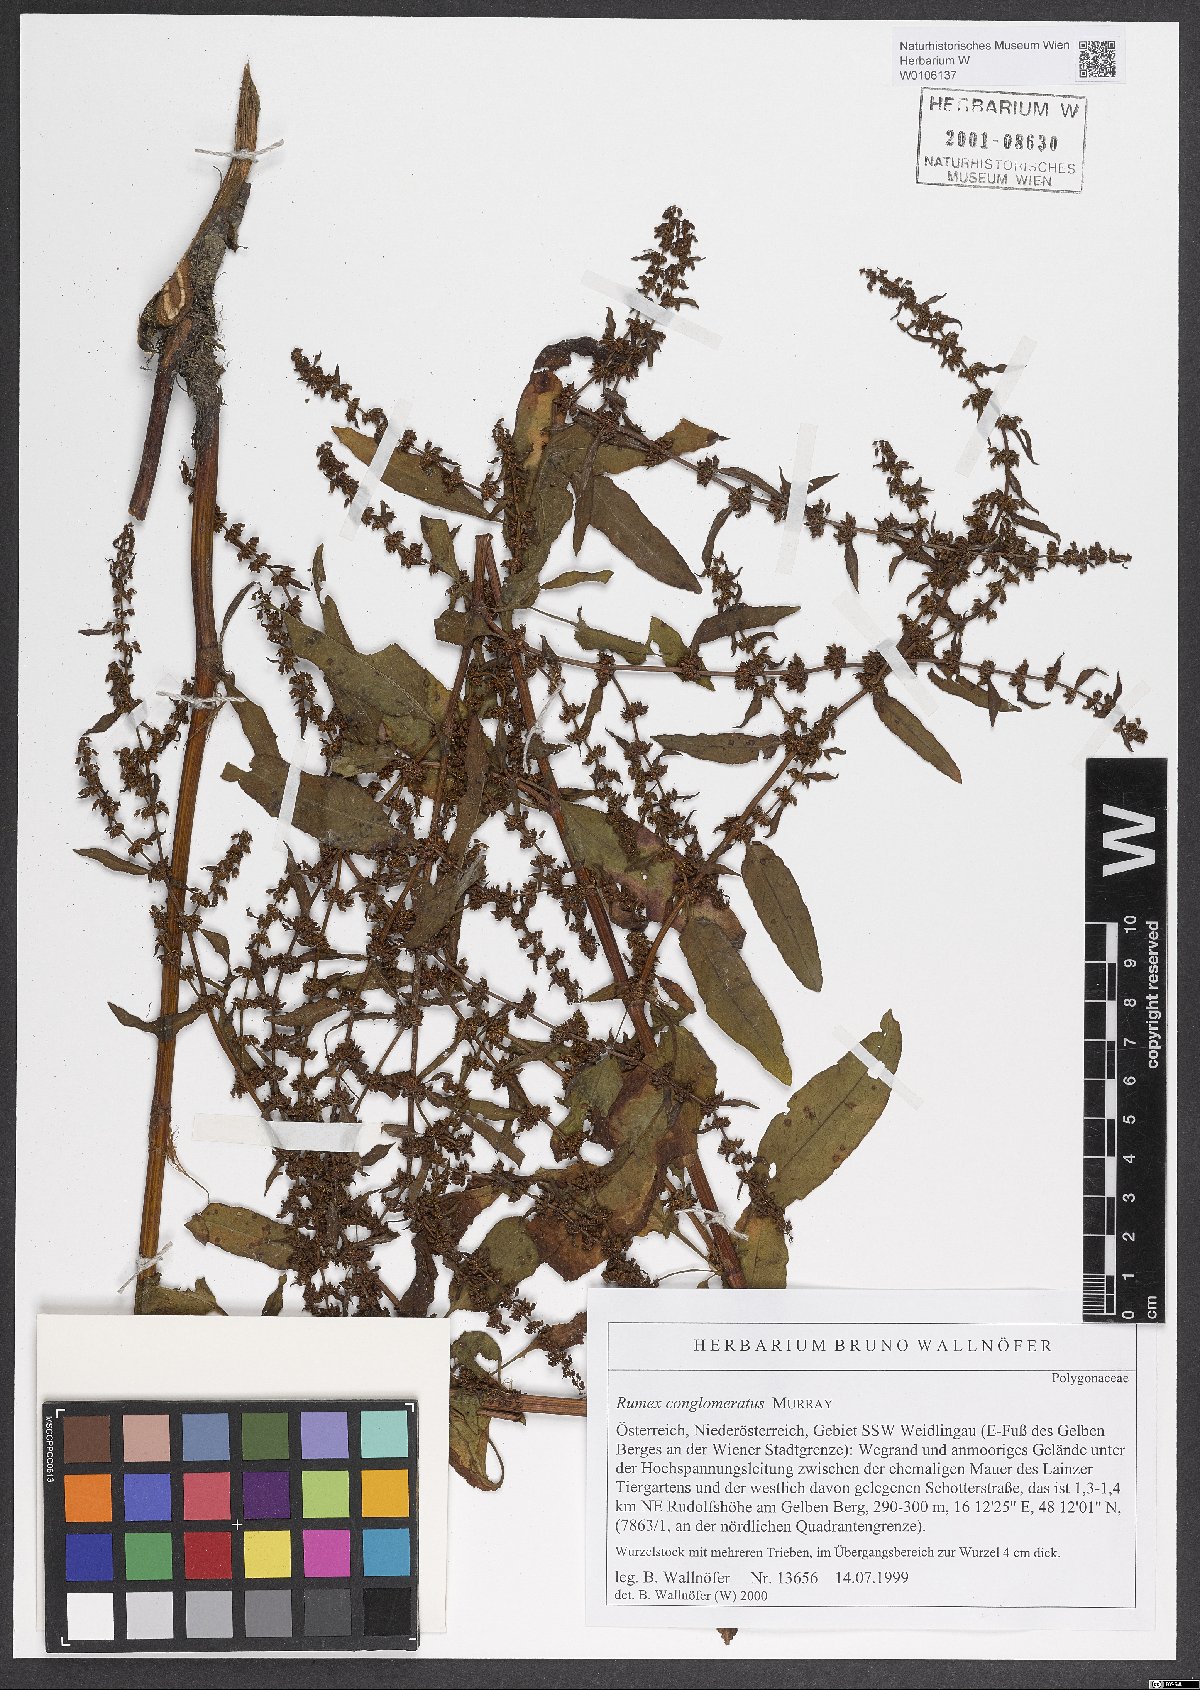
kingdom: Plantae
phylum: Tracheophyta
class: Magnoliopsida
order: Caryophyllales
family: Polygonaceae
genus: Rumex
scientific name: Rumex conglomeratus
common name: Clustered dock
